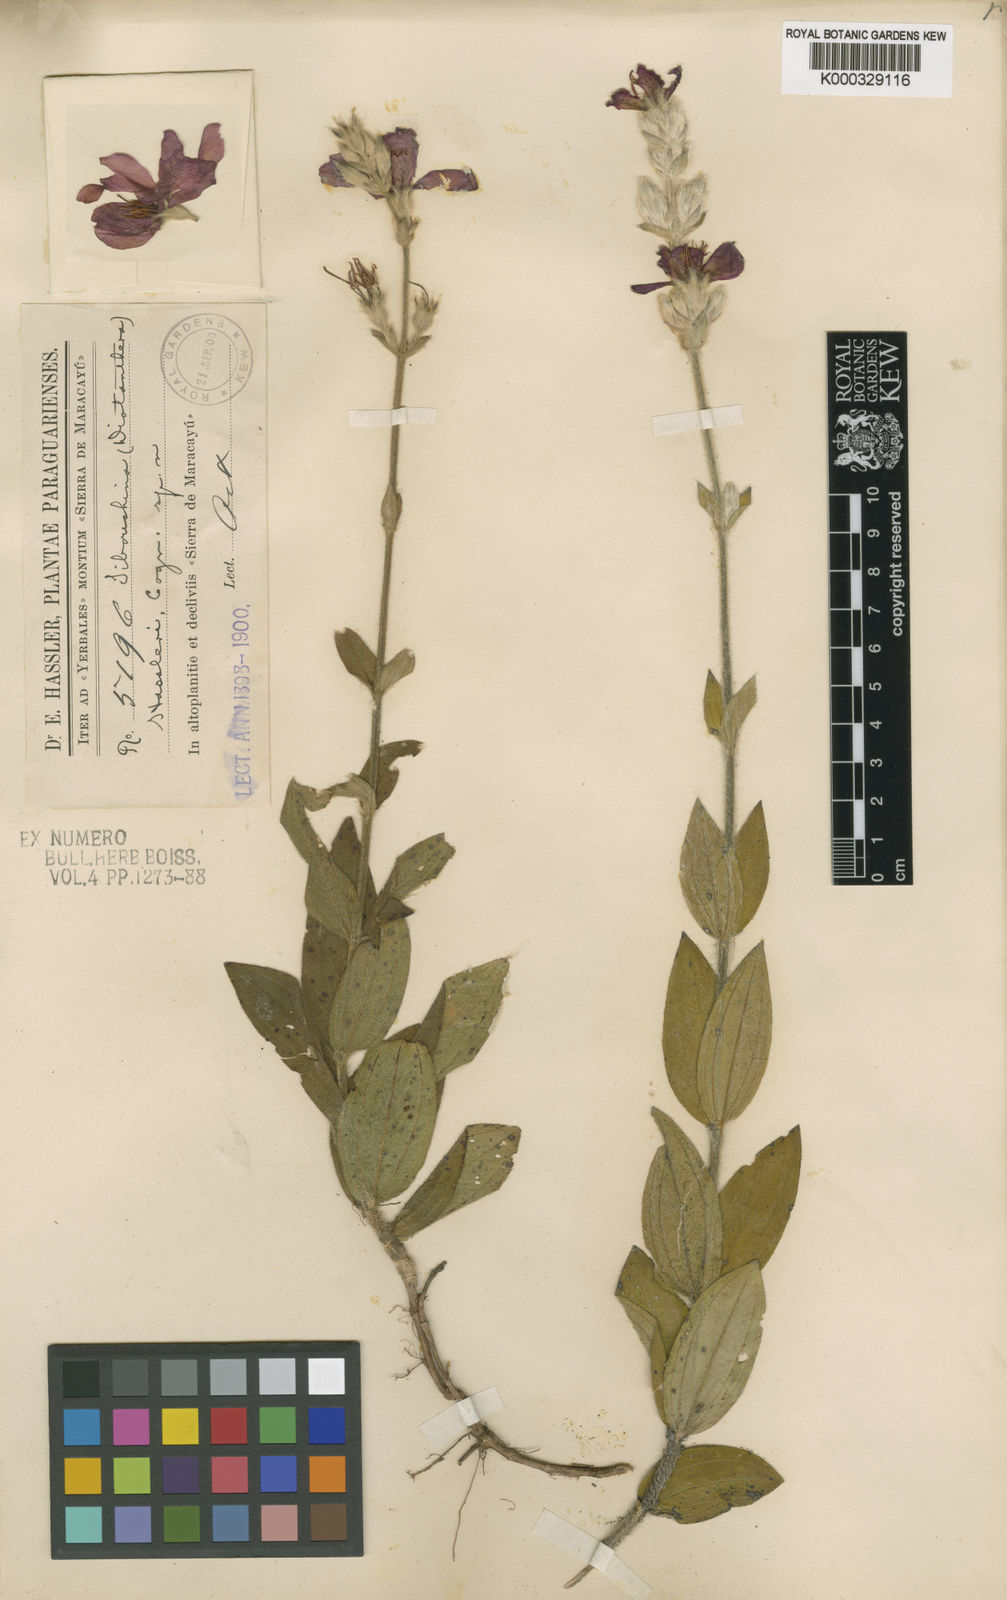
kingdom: Plantae
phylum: Tracheophyta
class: Magnoliopsida
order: Myrtales
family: Melastomataceae
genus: Chaetogastra
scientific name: Chaetogastra hassleri
